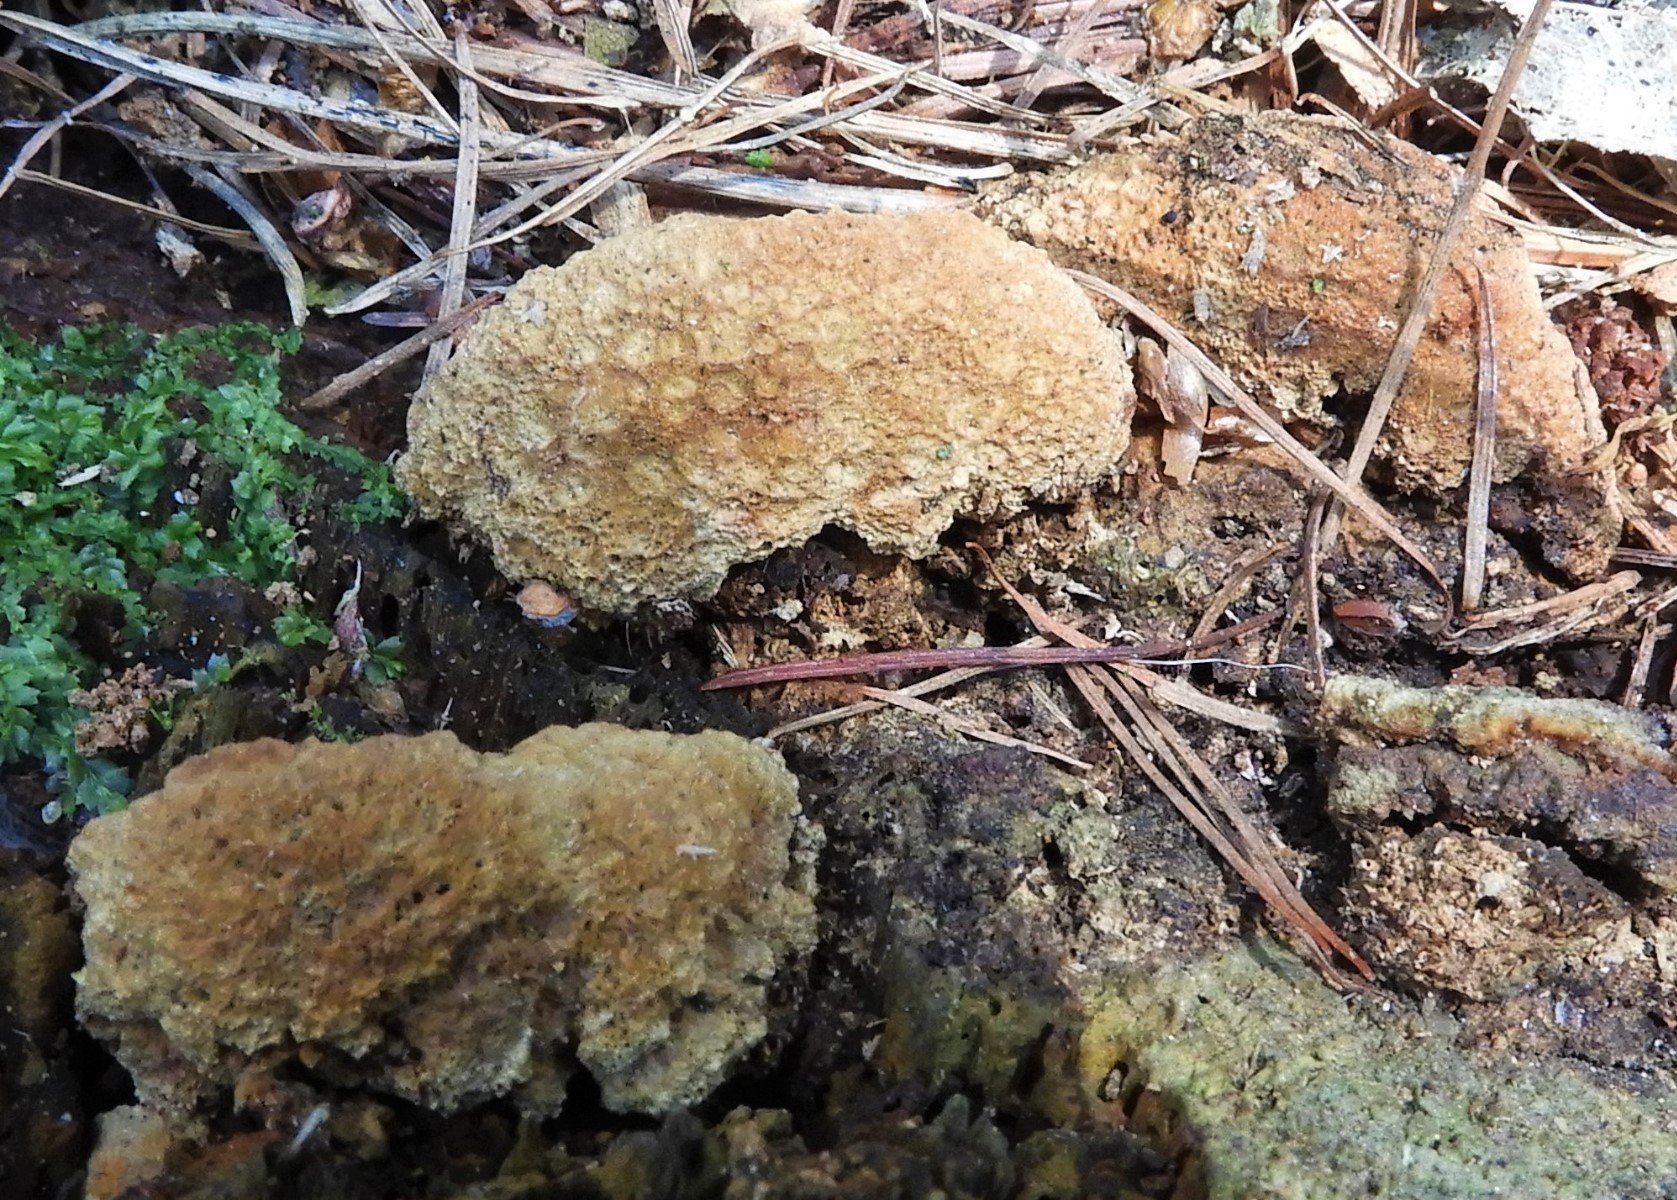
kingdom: Fungi
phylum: Basidiomycota
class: Agaricomycetes
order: Gloeophyllales
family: Gloeophyllaceae
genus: Gloeophyllum
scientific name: Gloeophyllum odoratum
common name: duftende korkhat
